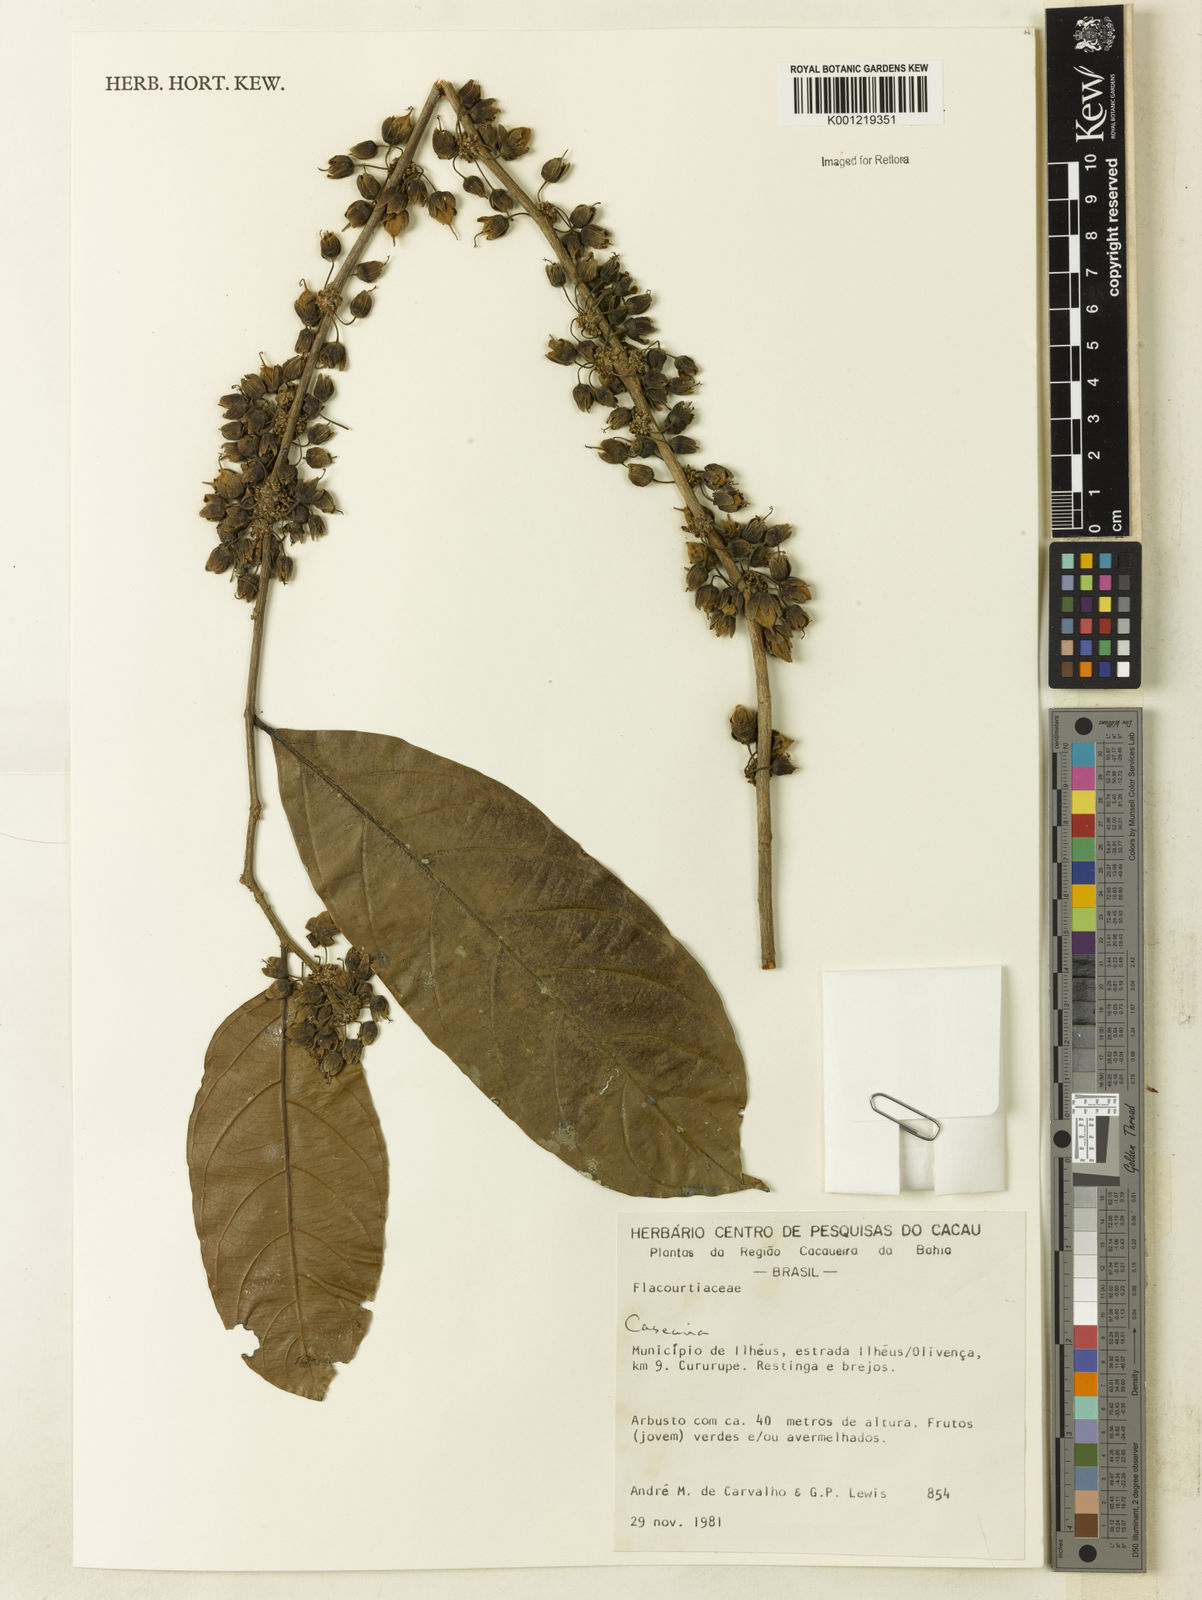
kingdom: Plantae
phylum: Tracheophyta
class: Magnoliopsida
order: Malpighiales
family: Salicaceae
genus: Casearia
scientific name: Casearia
